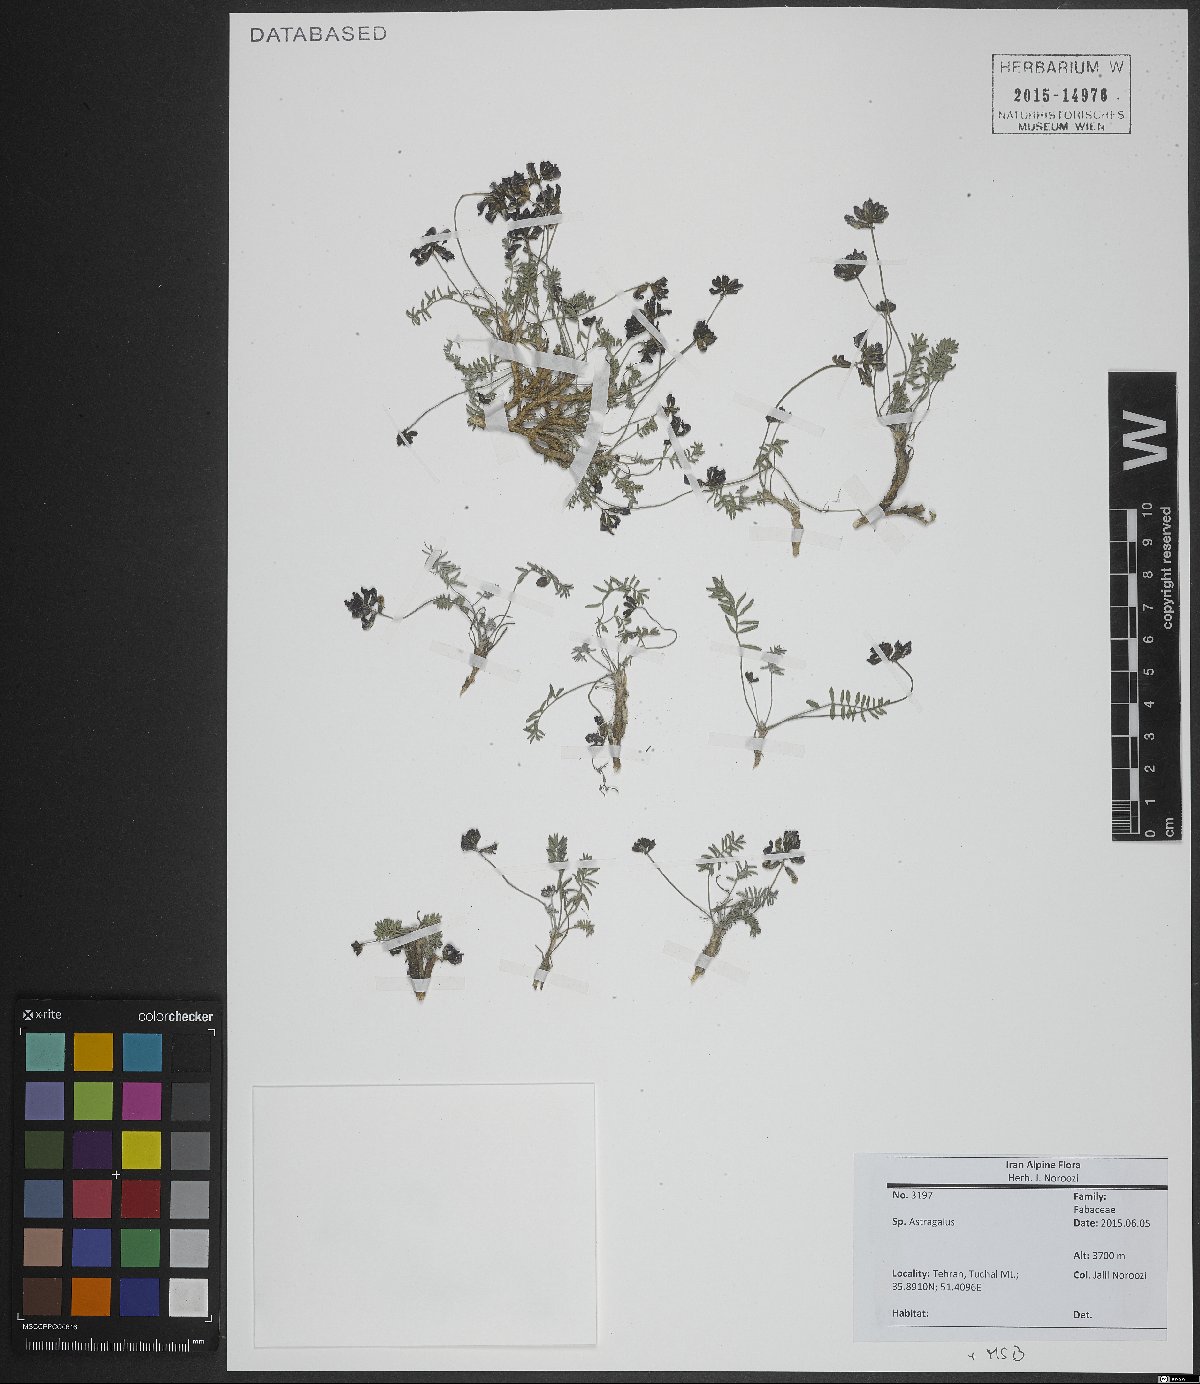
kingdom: Plantae
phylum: Tracheophyta
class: Magnoliopsida
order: Fabales
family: Fabaceae
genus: Astragalus
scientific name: Astragalus
